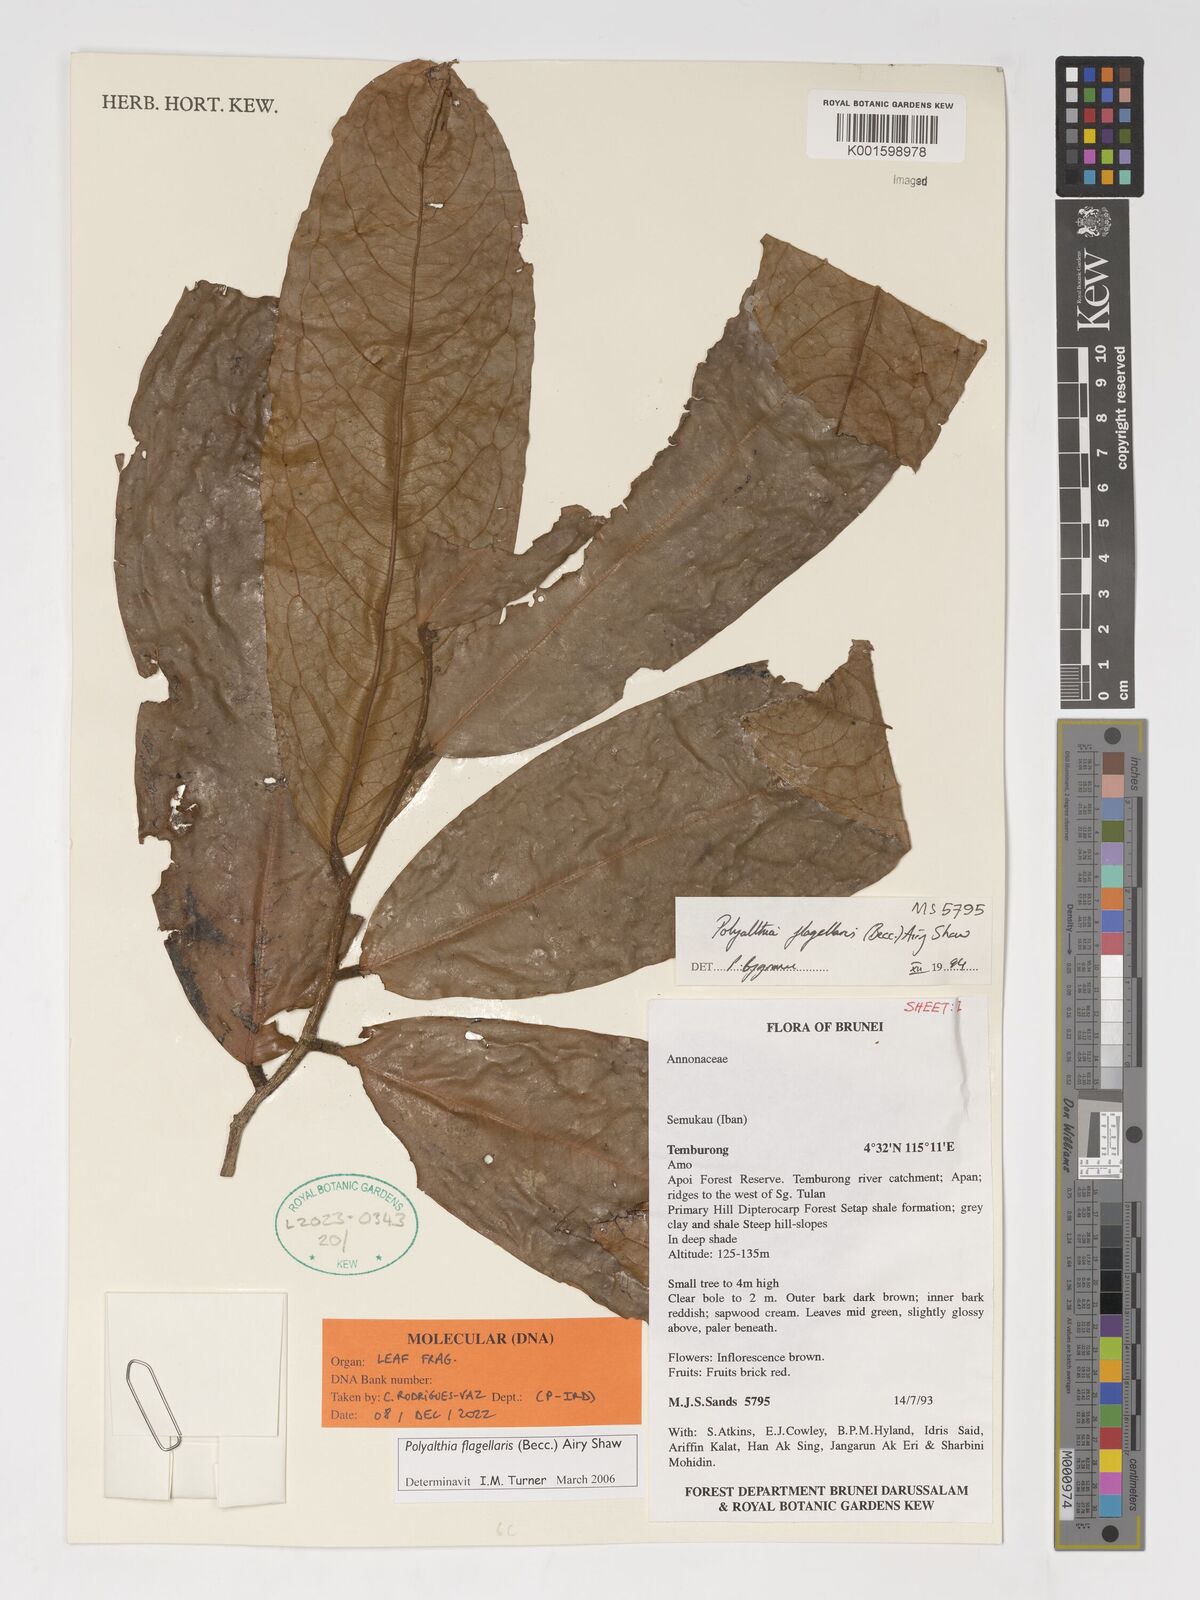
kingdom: Plantae
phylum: Tracheophyta
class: Magnoliopsida
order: Magnoliales
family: Annonaceae
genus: Polyalthia
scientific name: Polyalthia flagellaris
